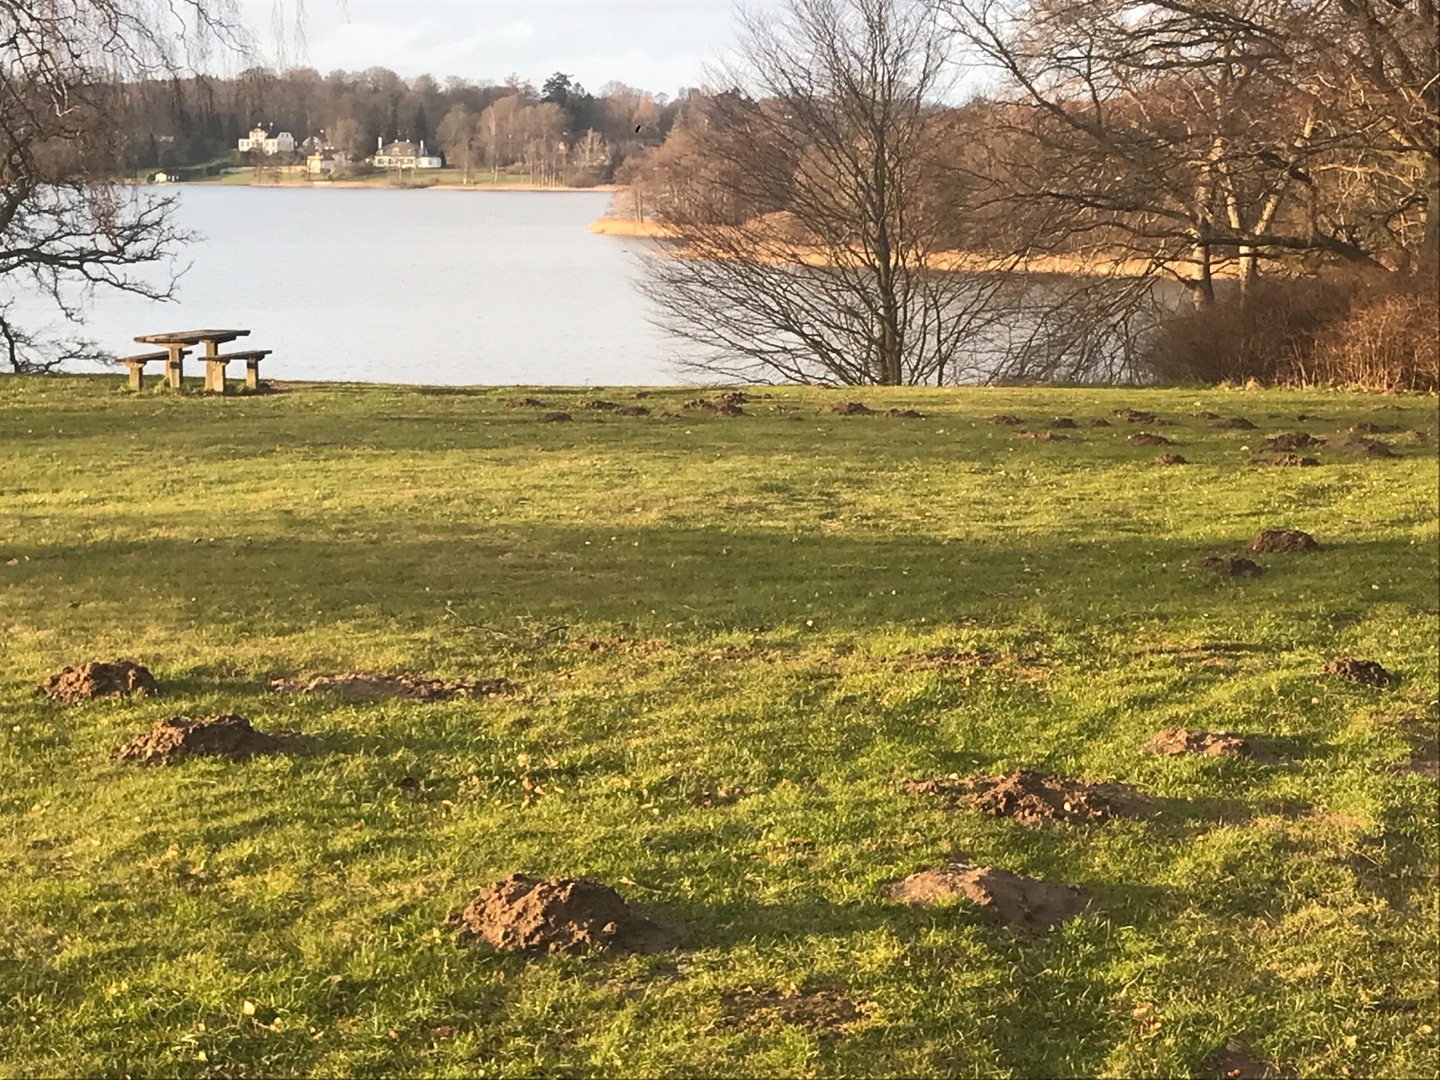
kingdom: Animalia
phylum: Chordata
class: Mammalia
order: Soricomorpha
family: Talpidae
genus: Talpa
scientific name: Talpa europaea
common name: Muldvarp
